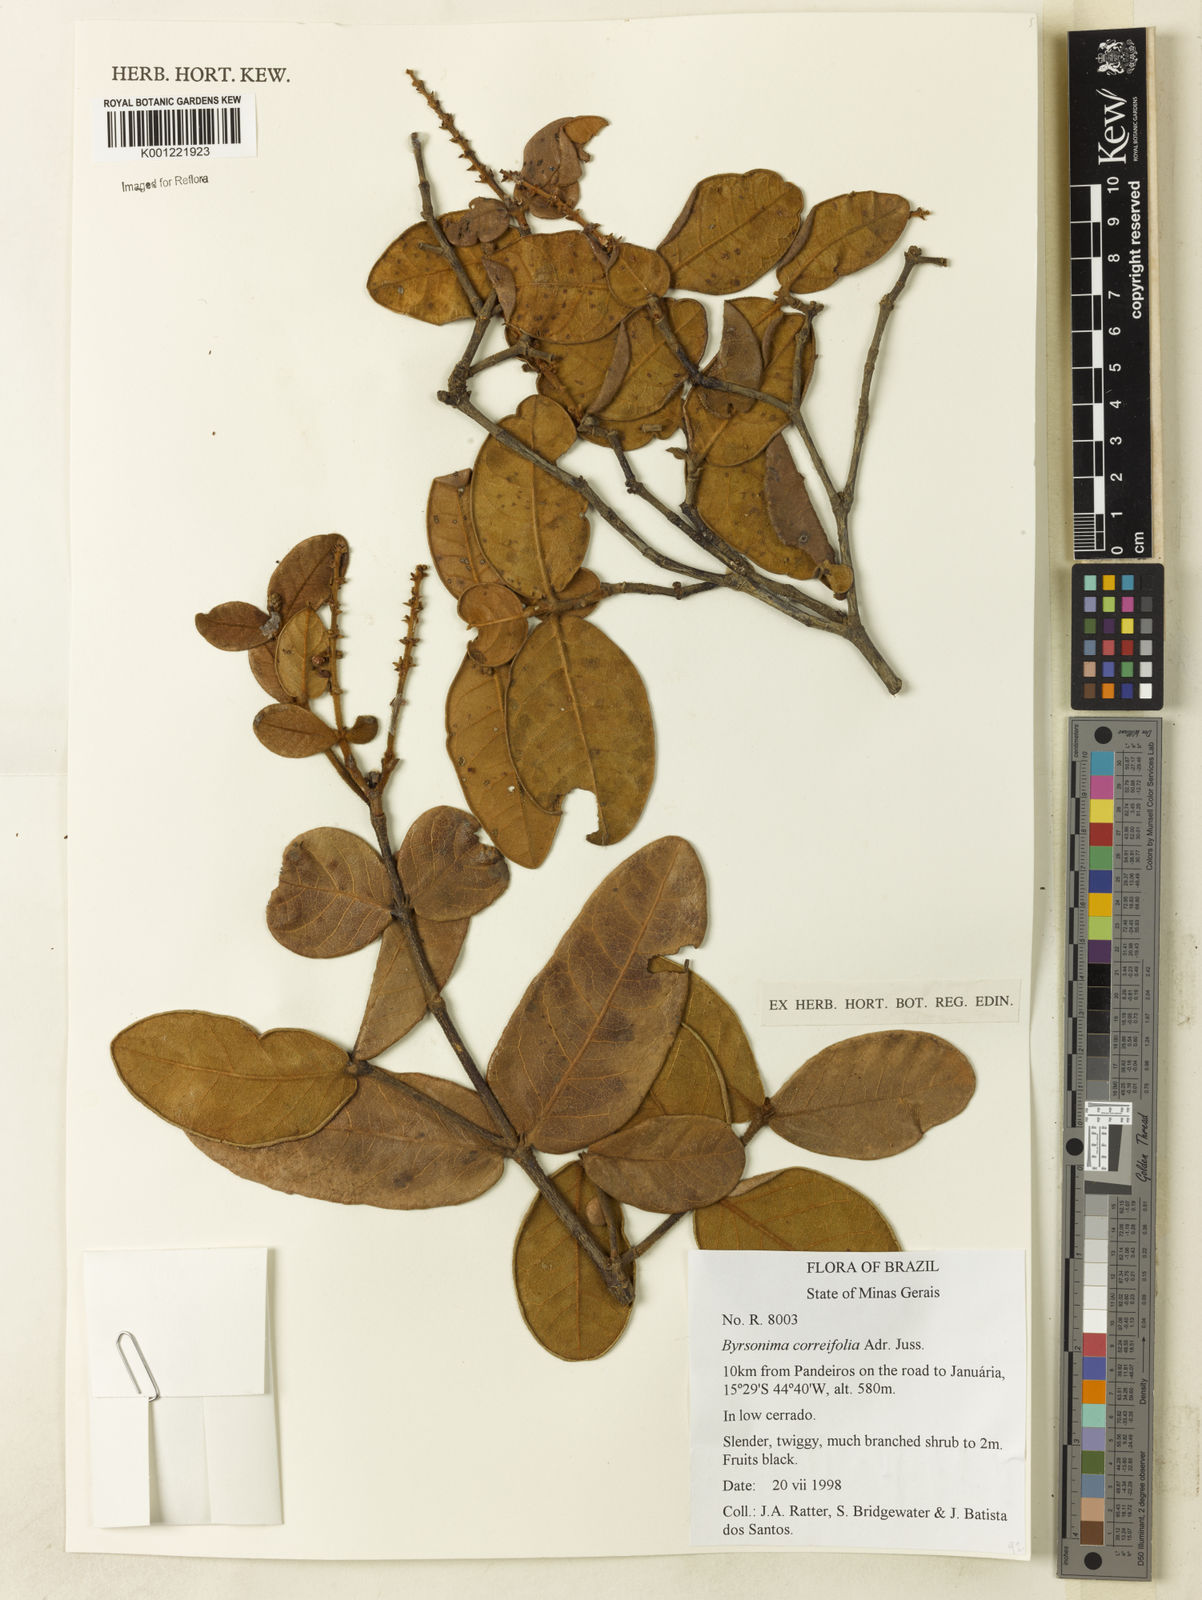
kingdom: Plantae
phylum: Tracheophyta
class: Magnoliopsida
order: Malpighiales
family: Malpighiaceae
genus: Byrsonima
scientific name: Byrsonima correifolia
